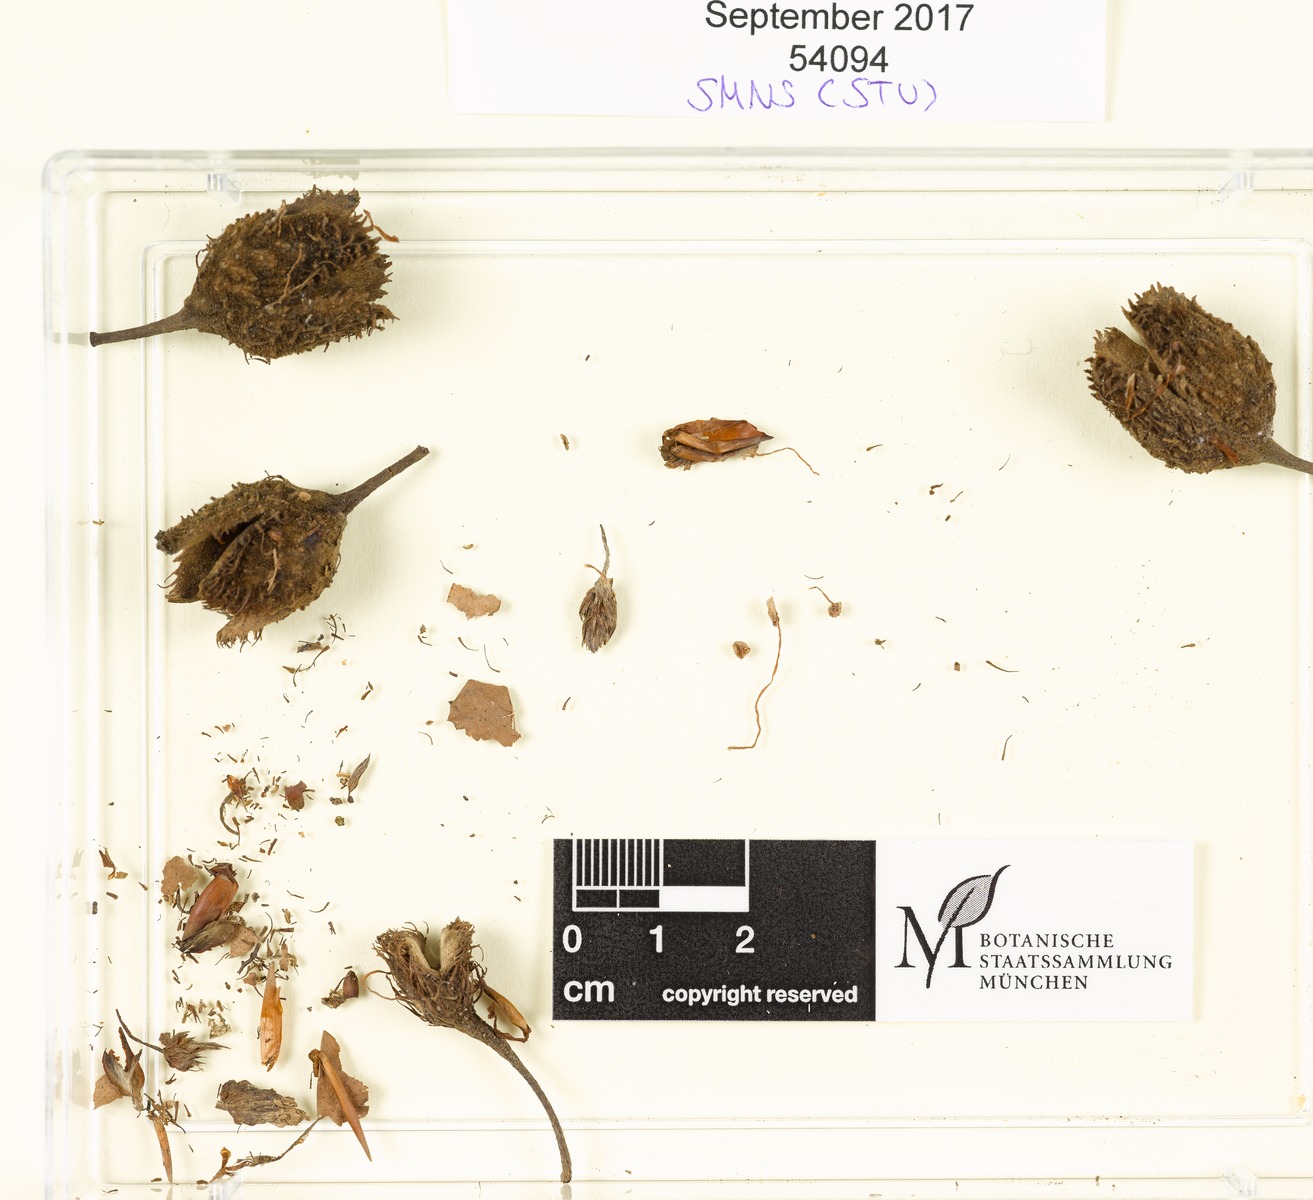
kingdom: Fungi
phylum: Basidiomycota
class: Agaricomycetes
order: Agaricales
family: Tubariaceae
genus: Flammulaster
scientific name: Flammulaster saliciphilus
